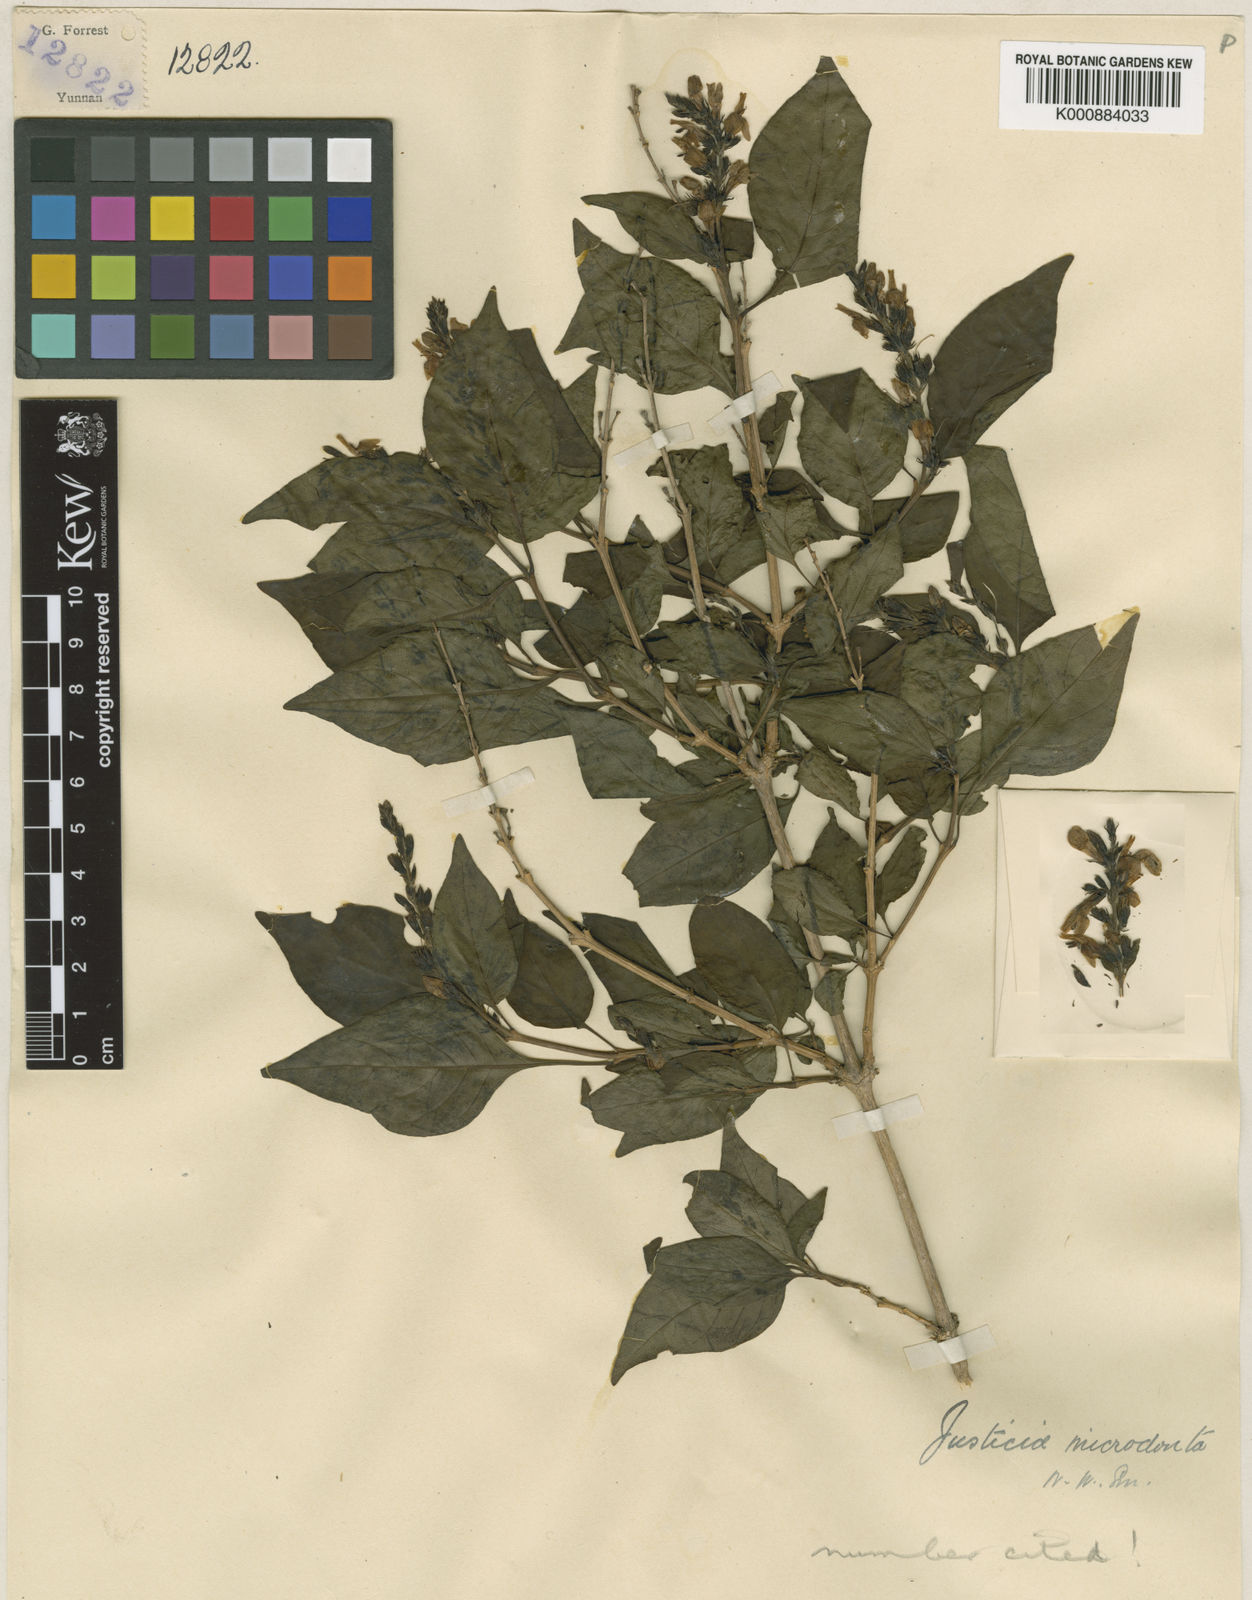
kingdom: Plantae
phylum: Tracheophyta
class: Magnoliopsida
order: Lamiales
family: Acanthaceae
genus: Wuacanthus
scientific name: Wuacanthus microdontus
